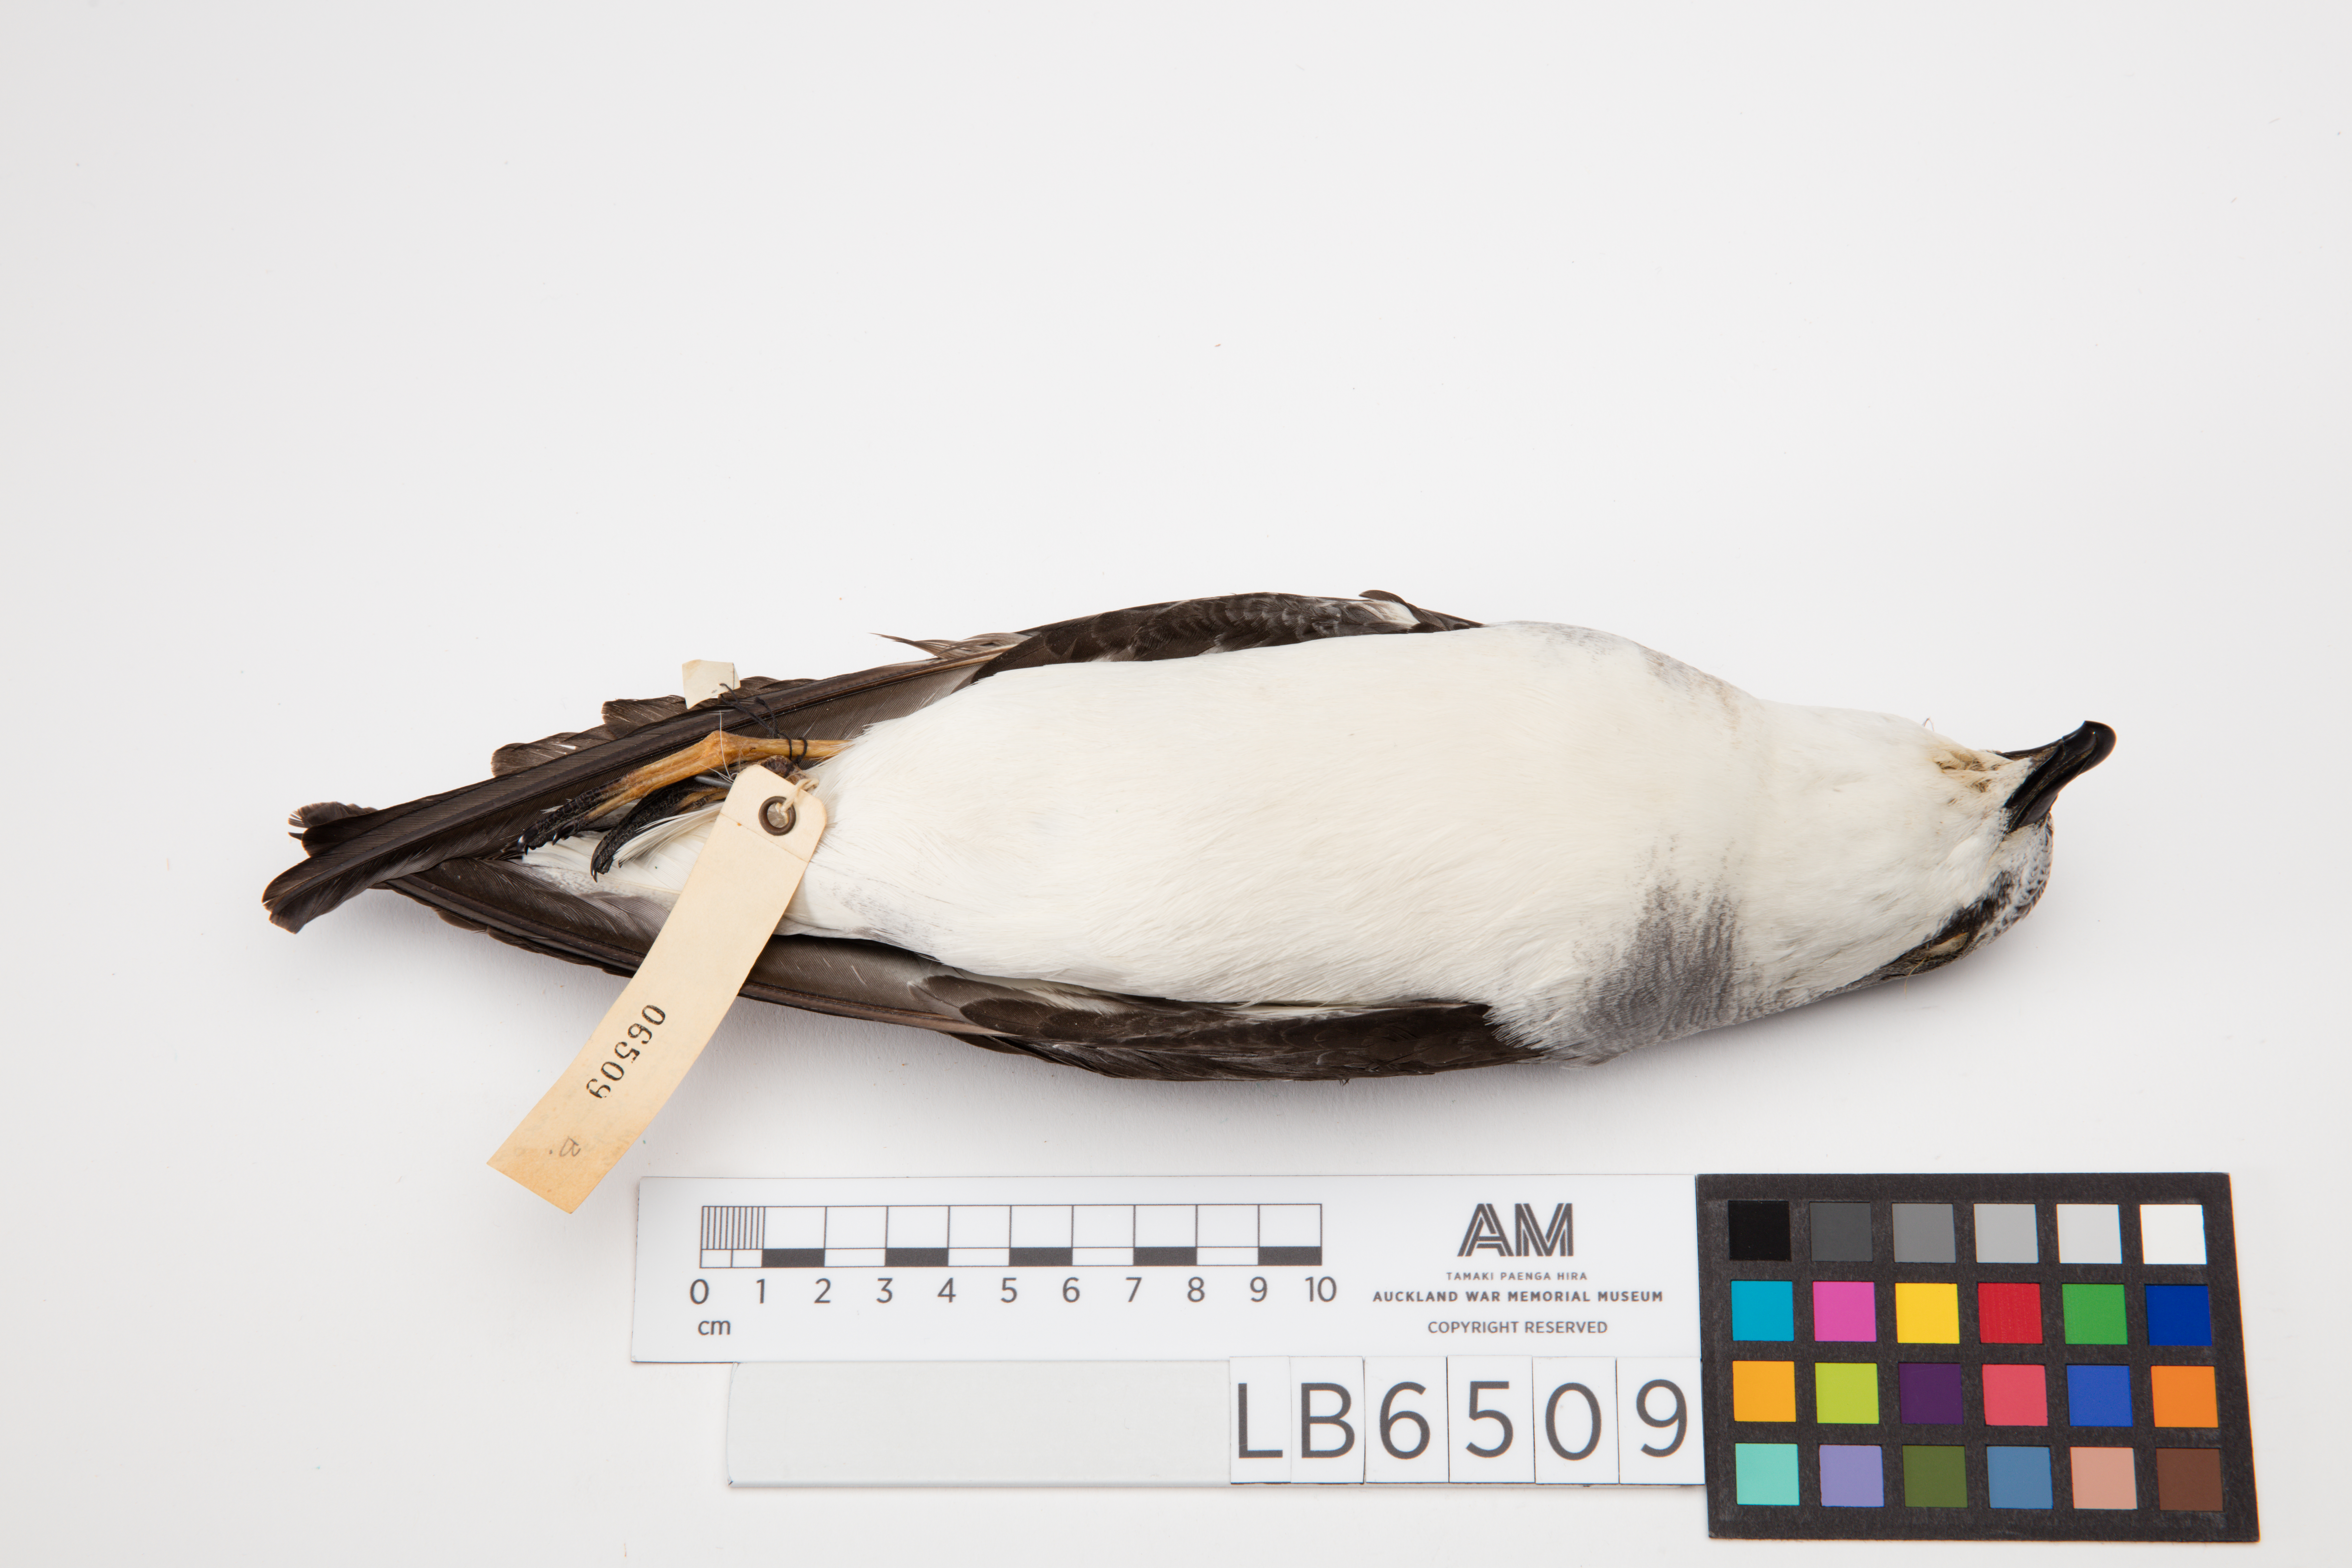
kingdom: Animalia
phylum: Chordata
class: Aves
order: Procellariiformes
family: Procellariidae
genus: Pterodroma
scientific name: Pterodroma nigripennis
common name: Black-winged petrel
